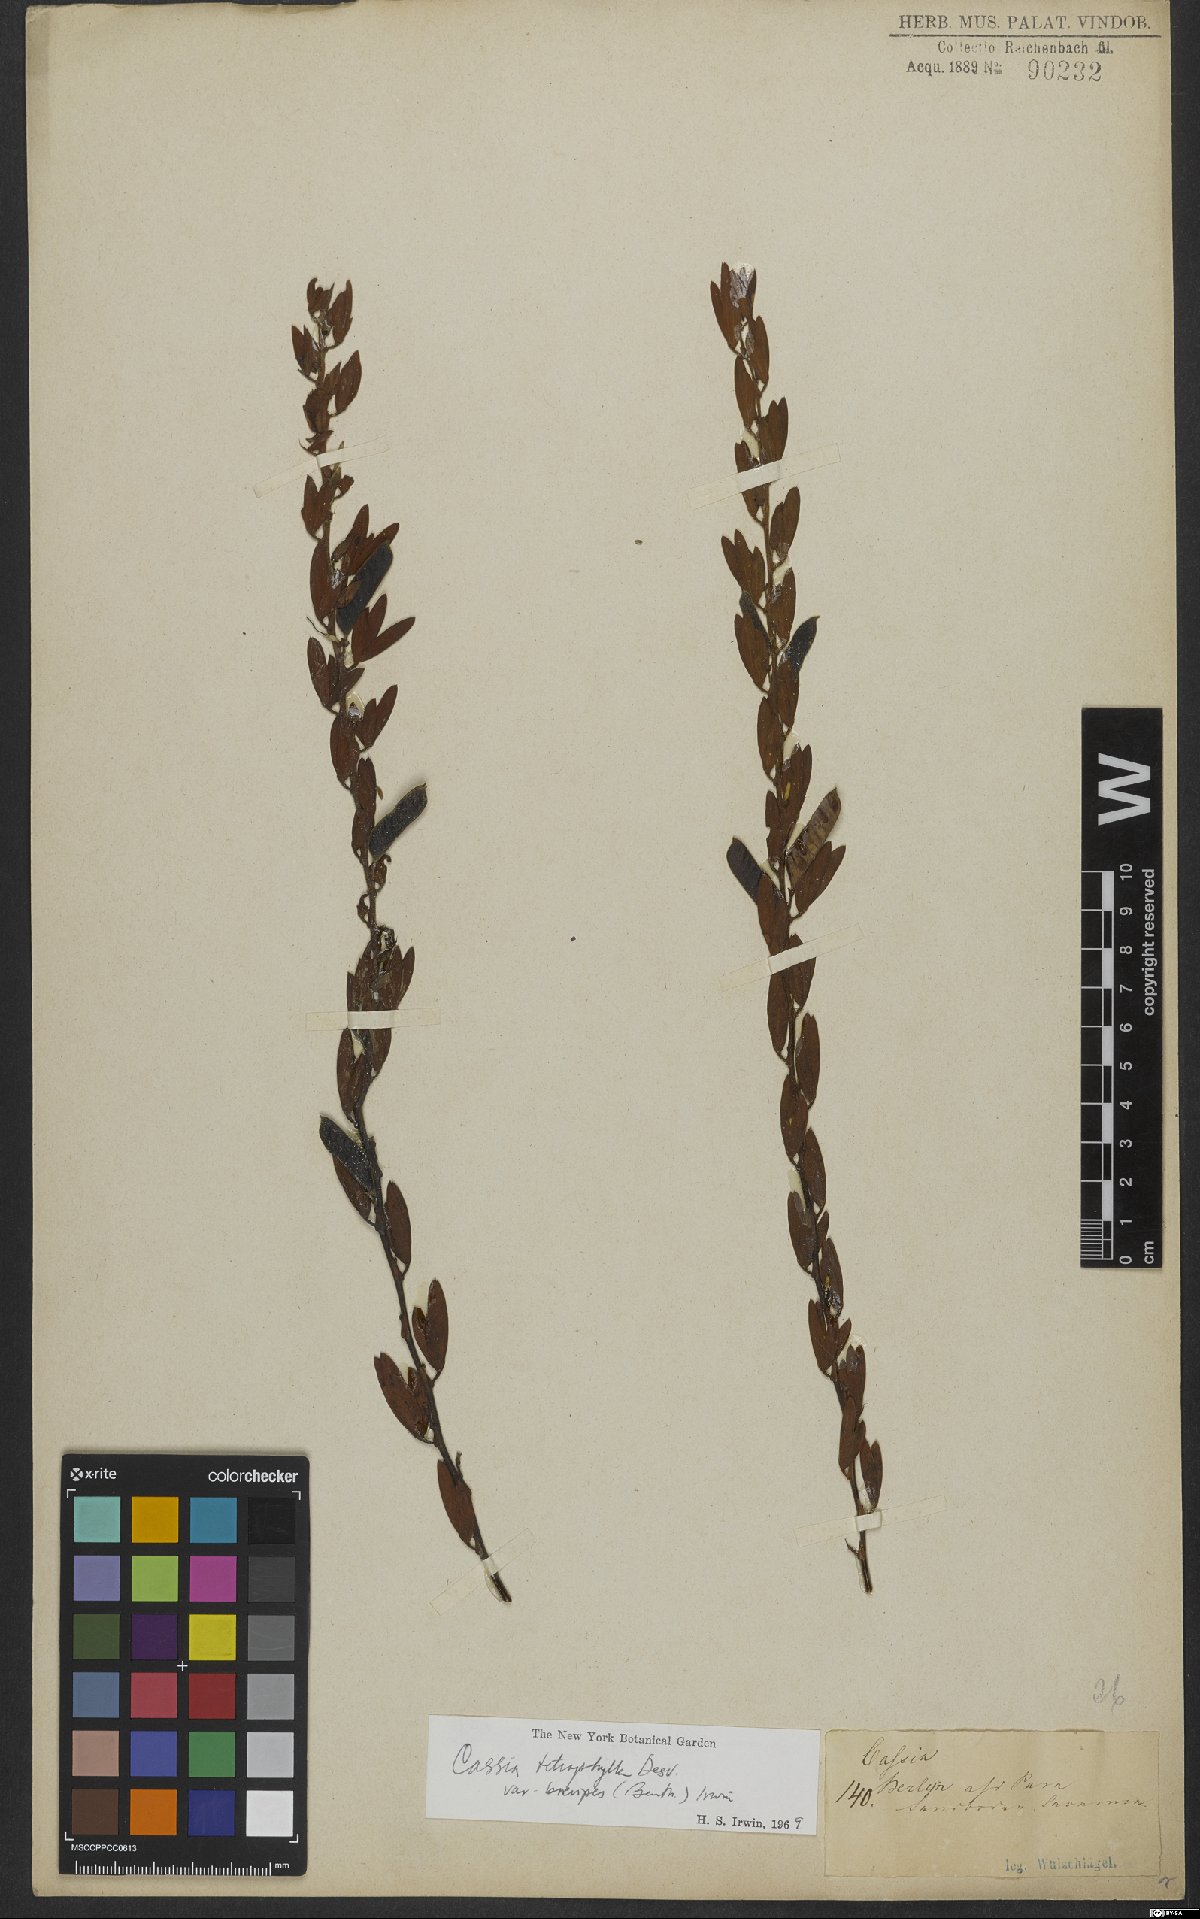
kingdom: Plantae
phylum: Tracheophyta
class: Magnoliopsida
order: Fabales
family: Fabaceae
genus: Chamaecrista
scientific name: Chamaecrista desvauxii
